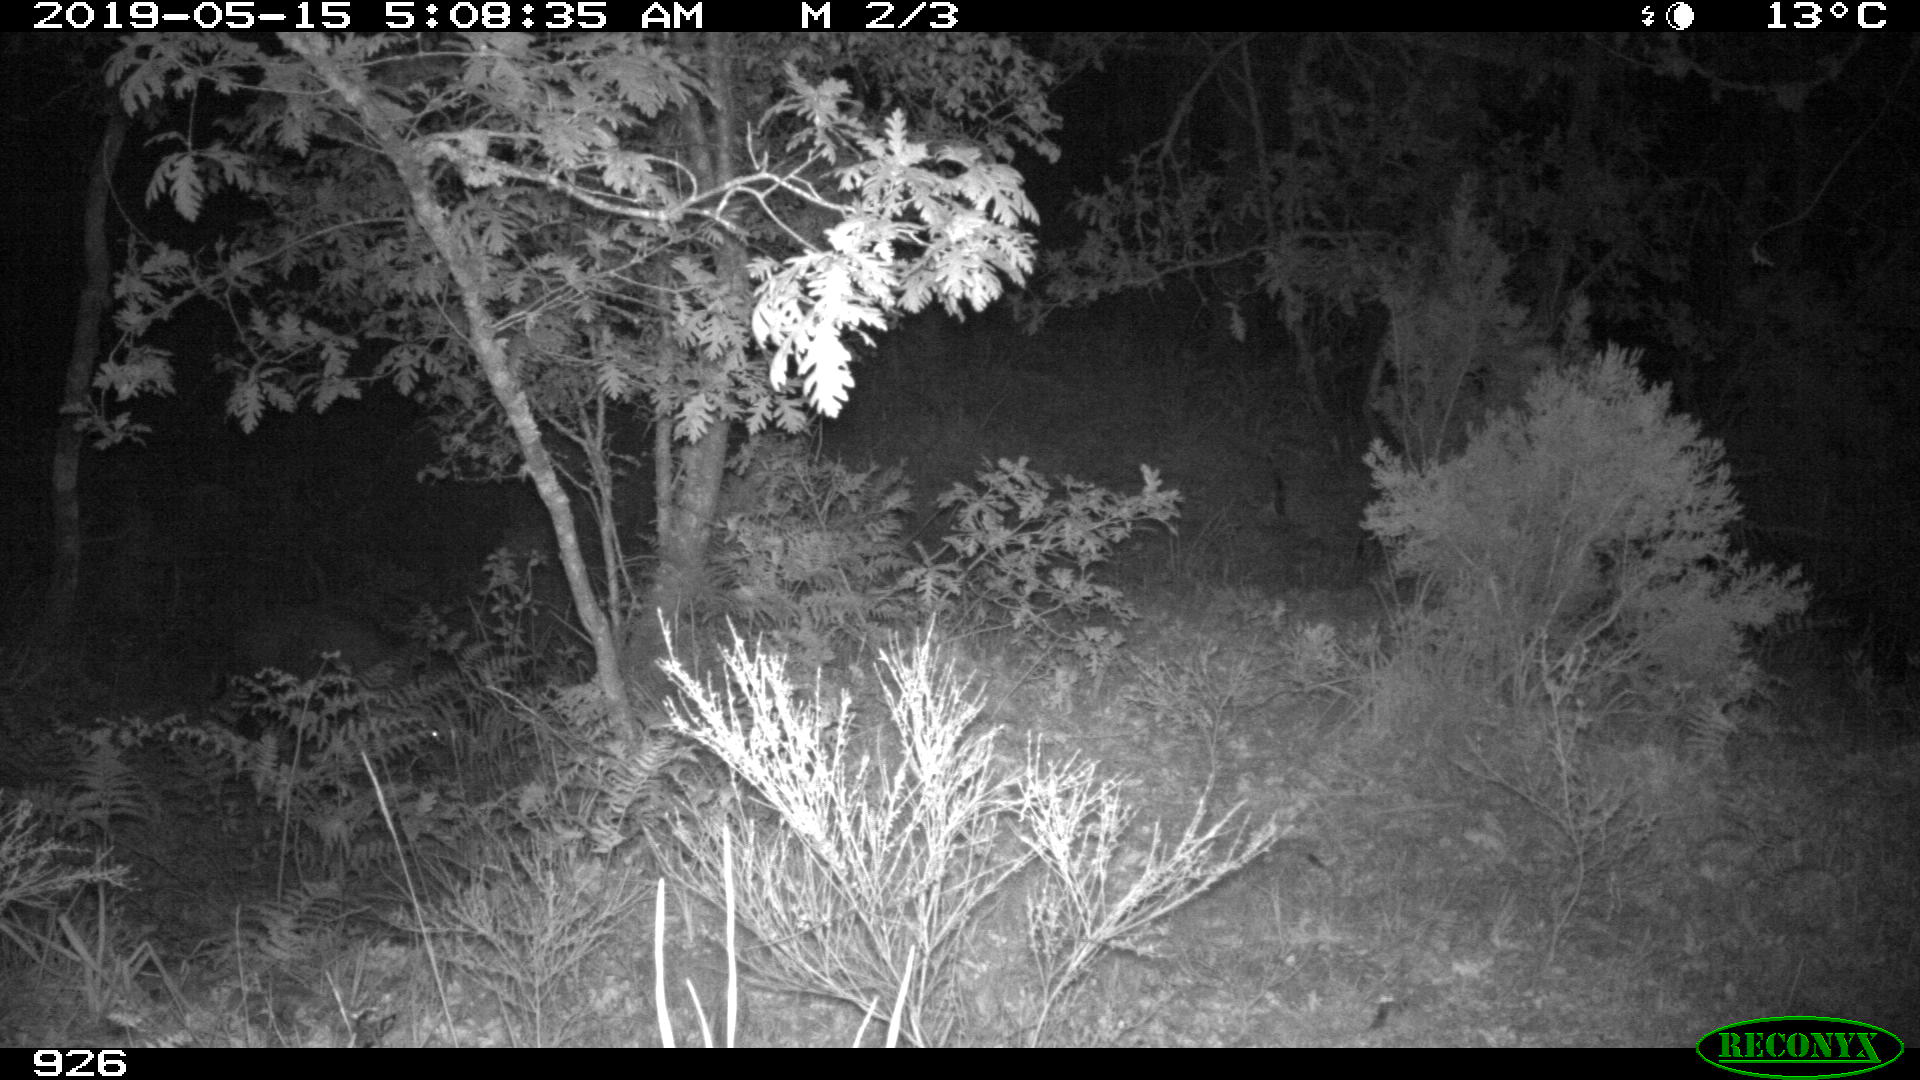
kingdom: Animalia
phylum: Chordata
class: Mammalia
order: Artiodactyla
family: Suidae
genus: Sus
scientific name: Sus scrofa
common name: Wild boar
